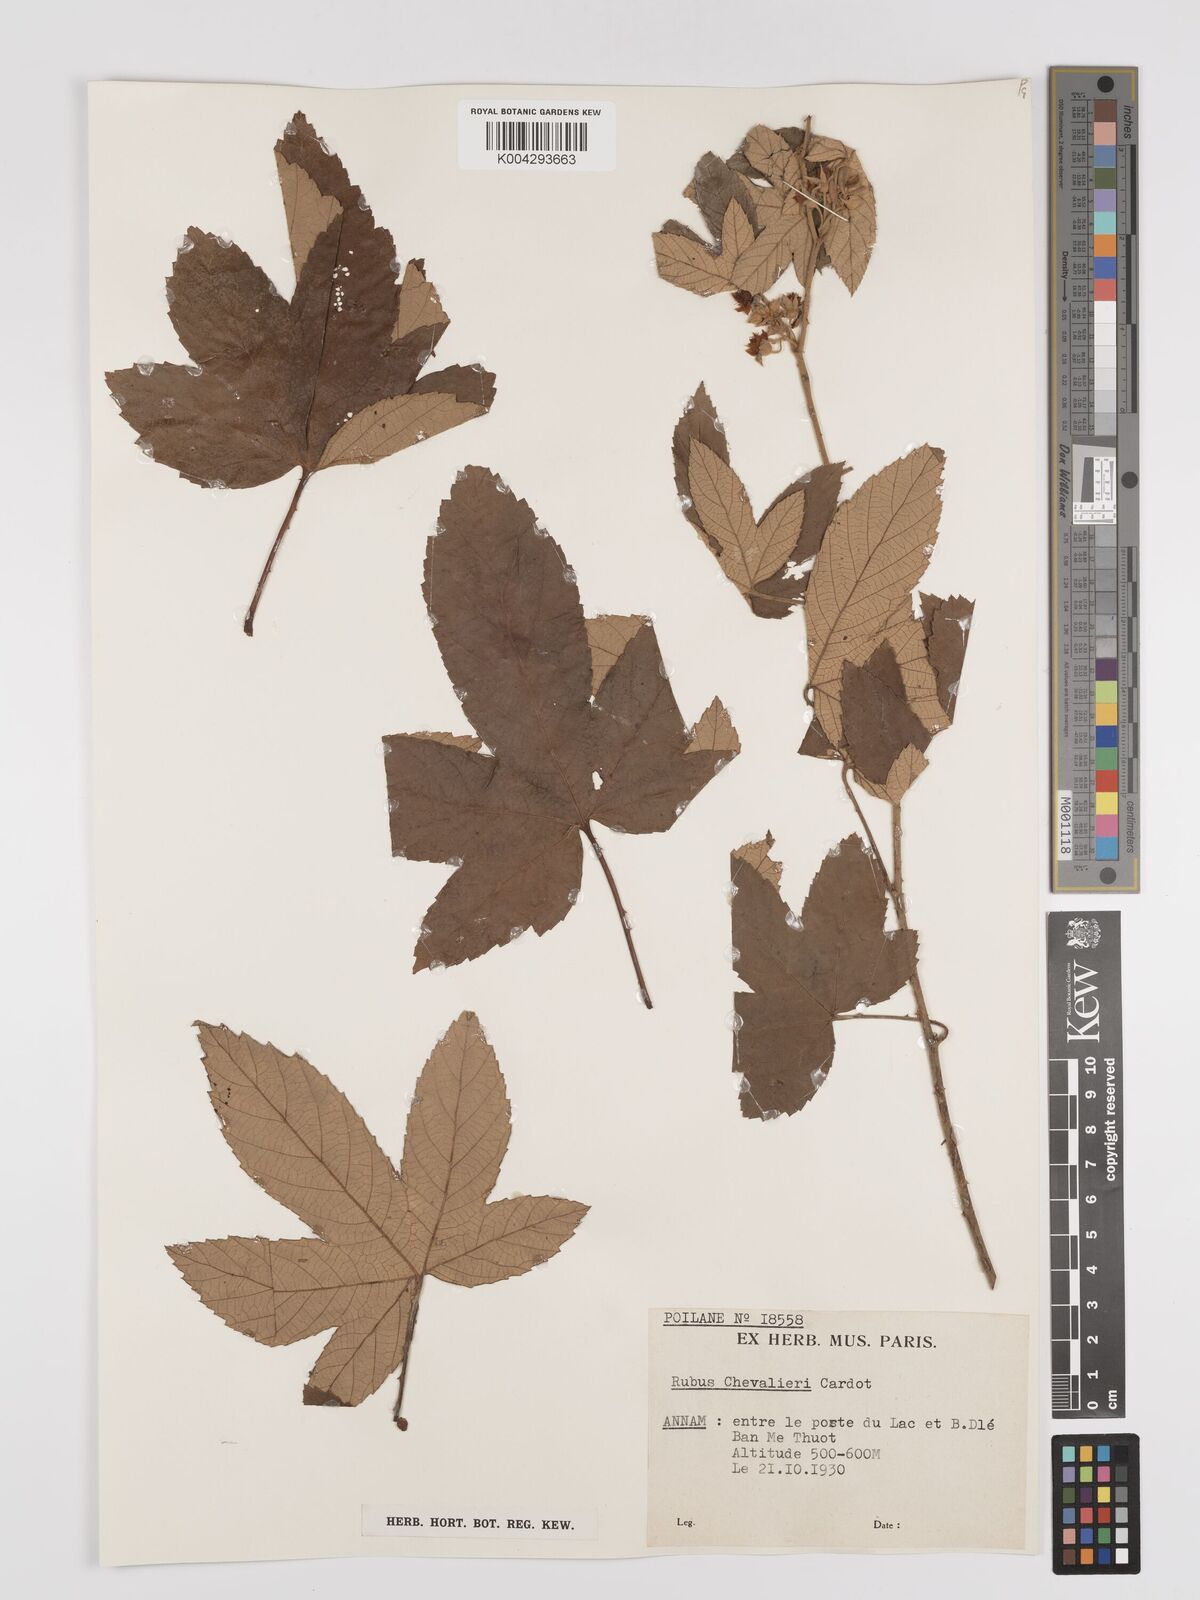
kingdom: Plantae
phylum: Tracheophyta
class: Magnoliopsida
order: Rosales
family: Rosaceae
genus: Rubus
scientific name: Rubus chevalieri
